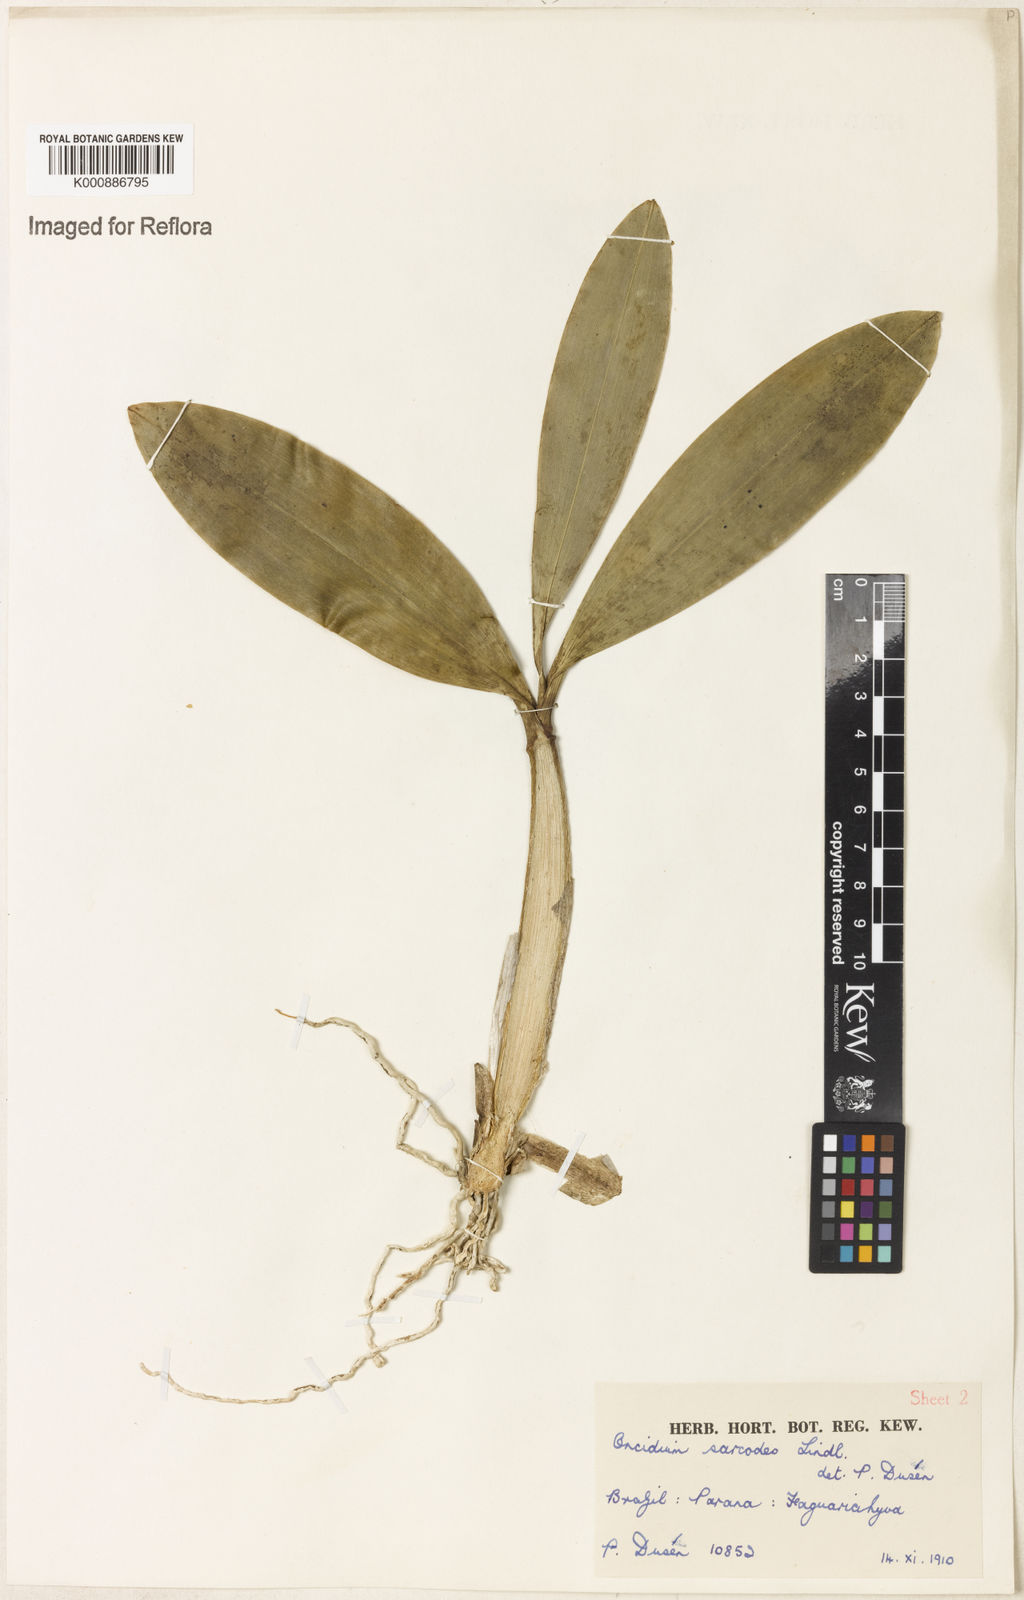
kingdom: Plantae
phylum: Tracheophyta
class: Liliopsida
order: Asparagales
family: Orchidaceae
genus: Gomesa
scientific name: Gomesa sarcodes
